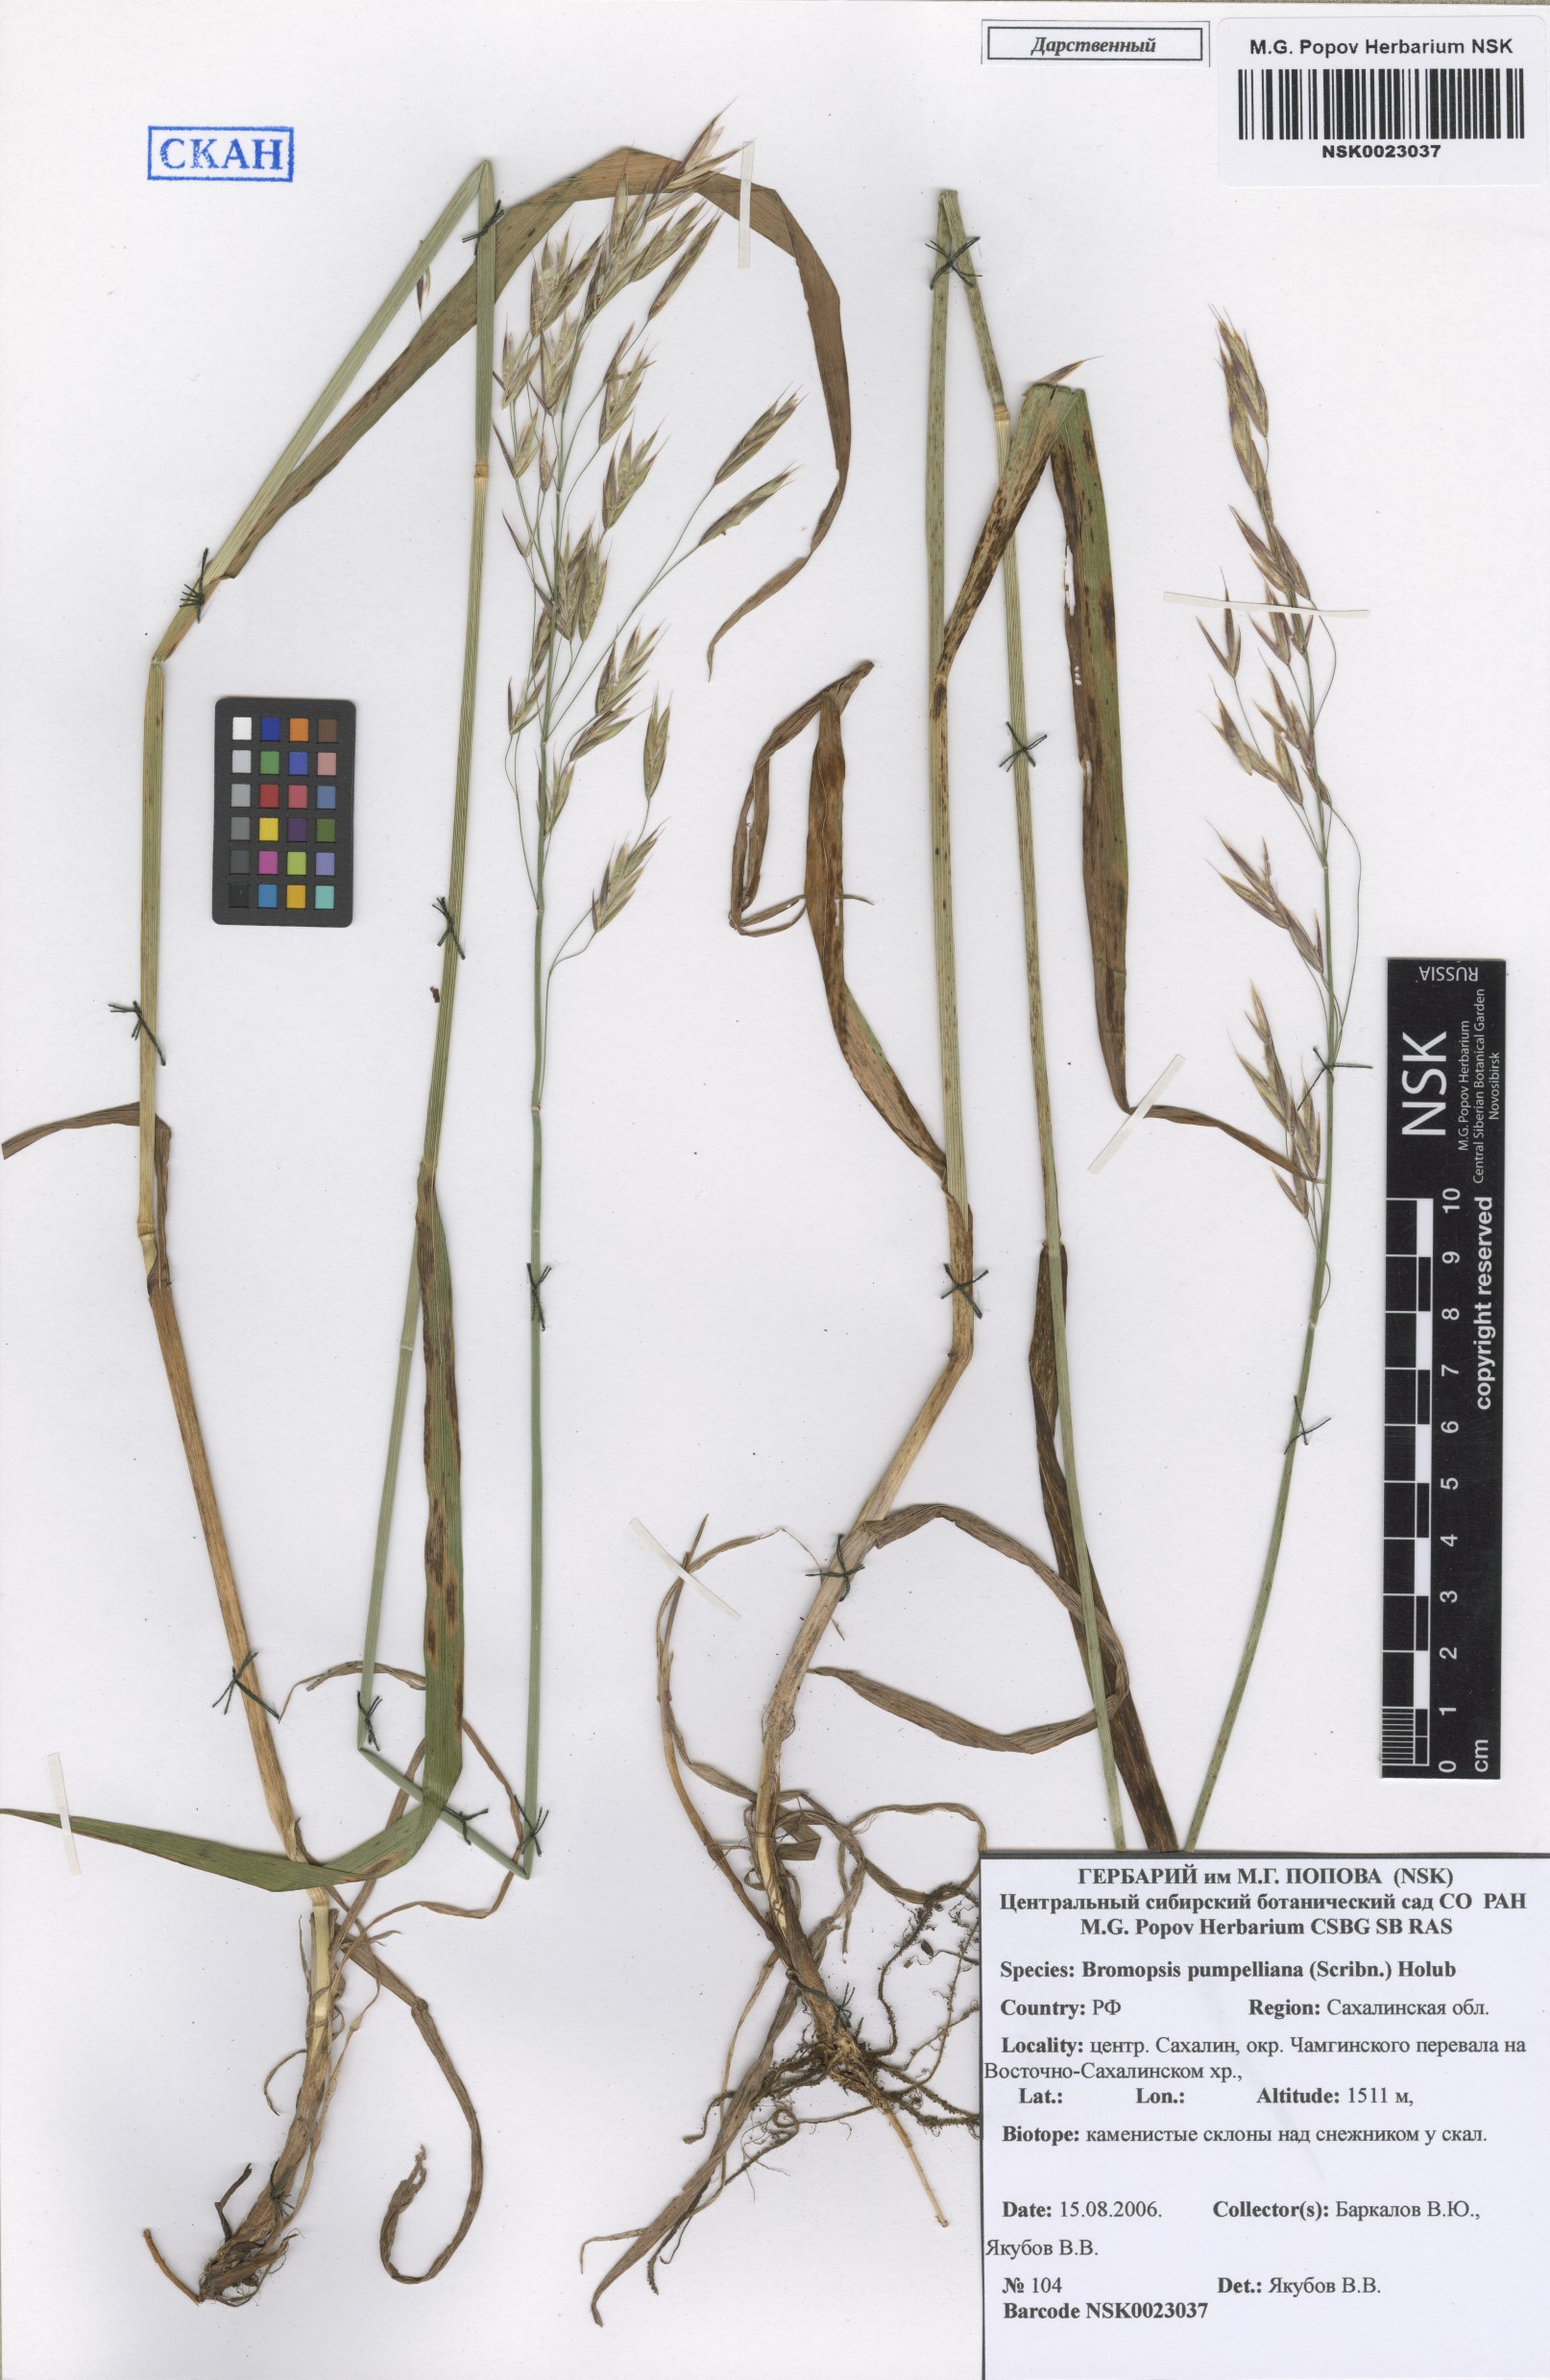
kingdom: Plantae
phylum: Tracheophyta
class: Liliopsida
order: Poales
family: Poaceae
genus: Bromus
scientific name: Bromus pumpellianus
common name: Pumpelly's brome
